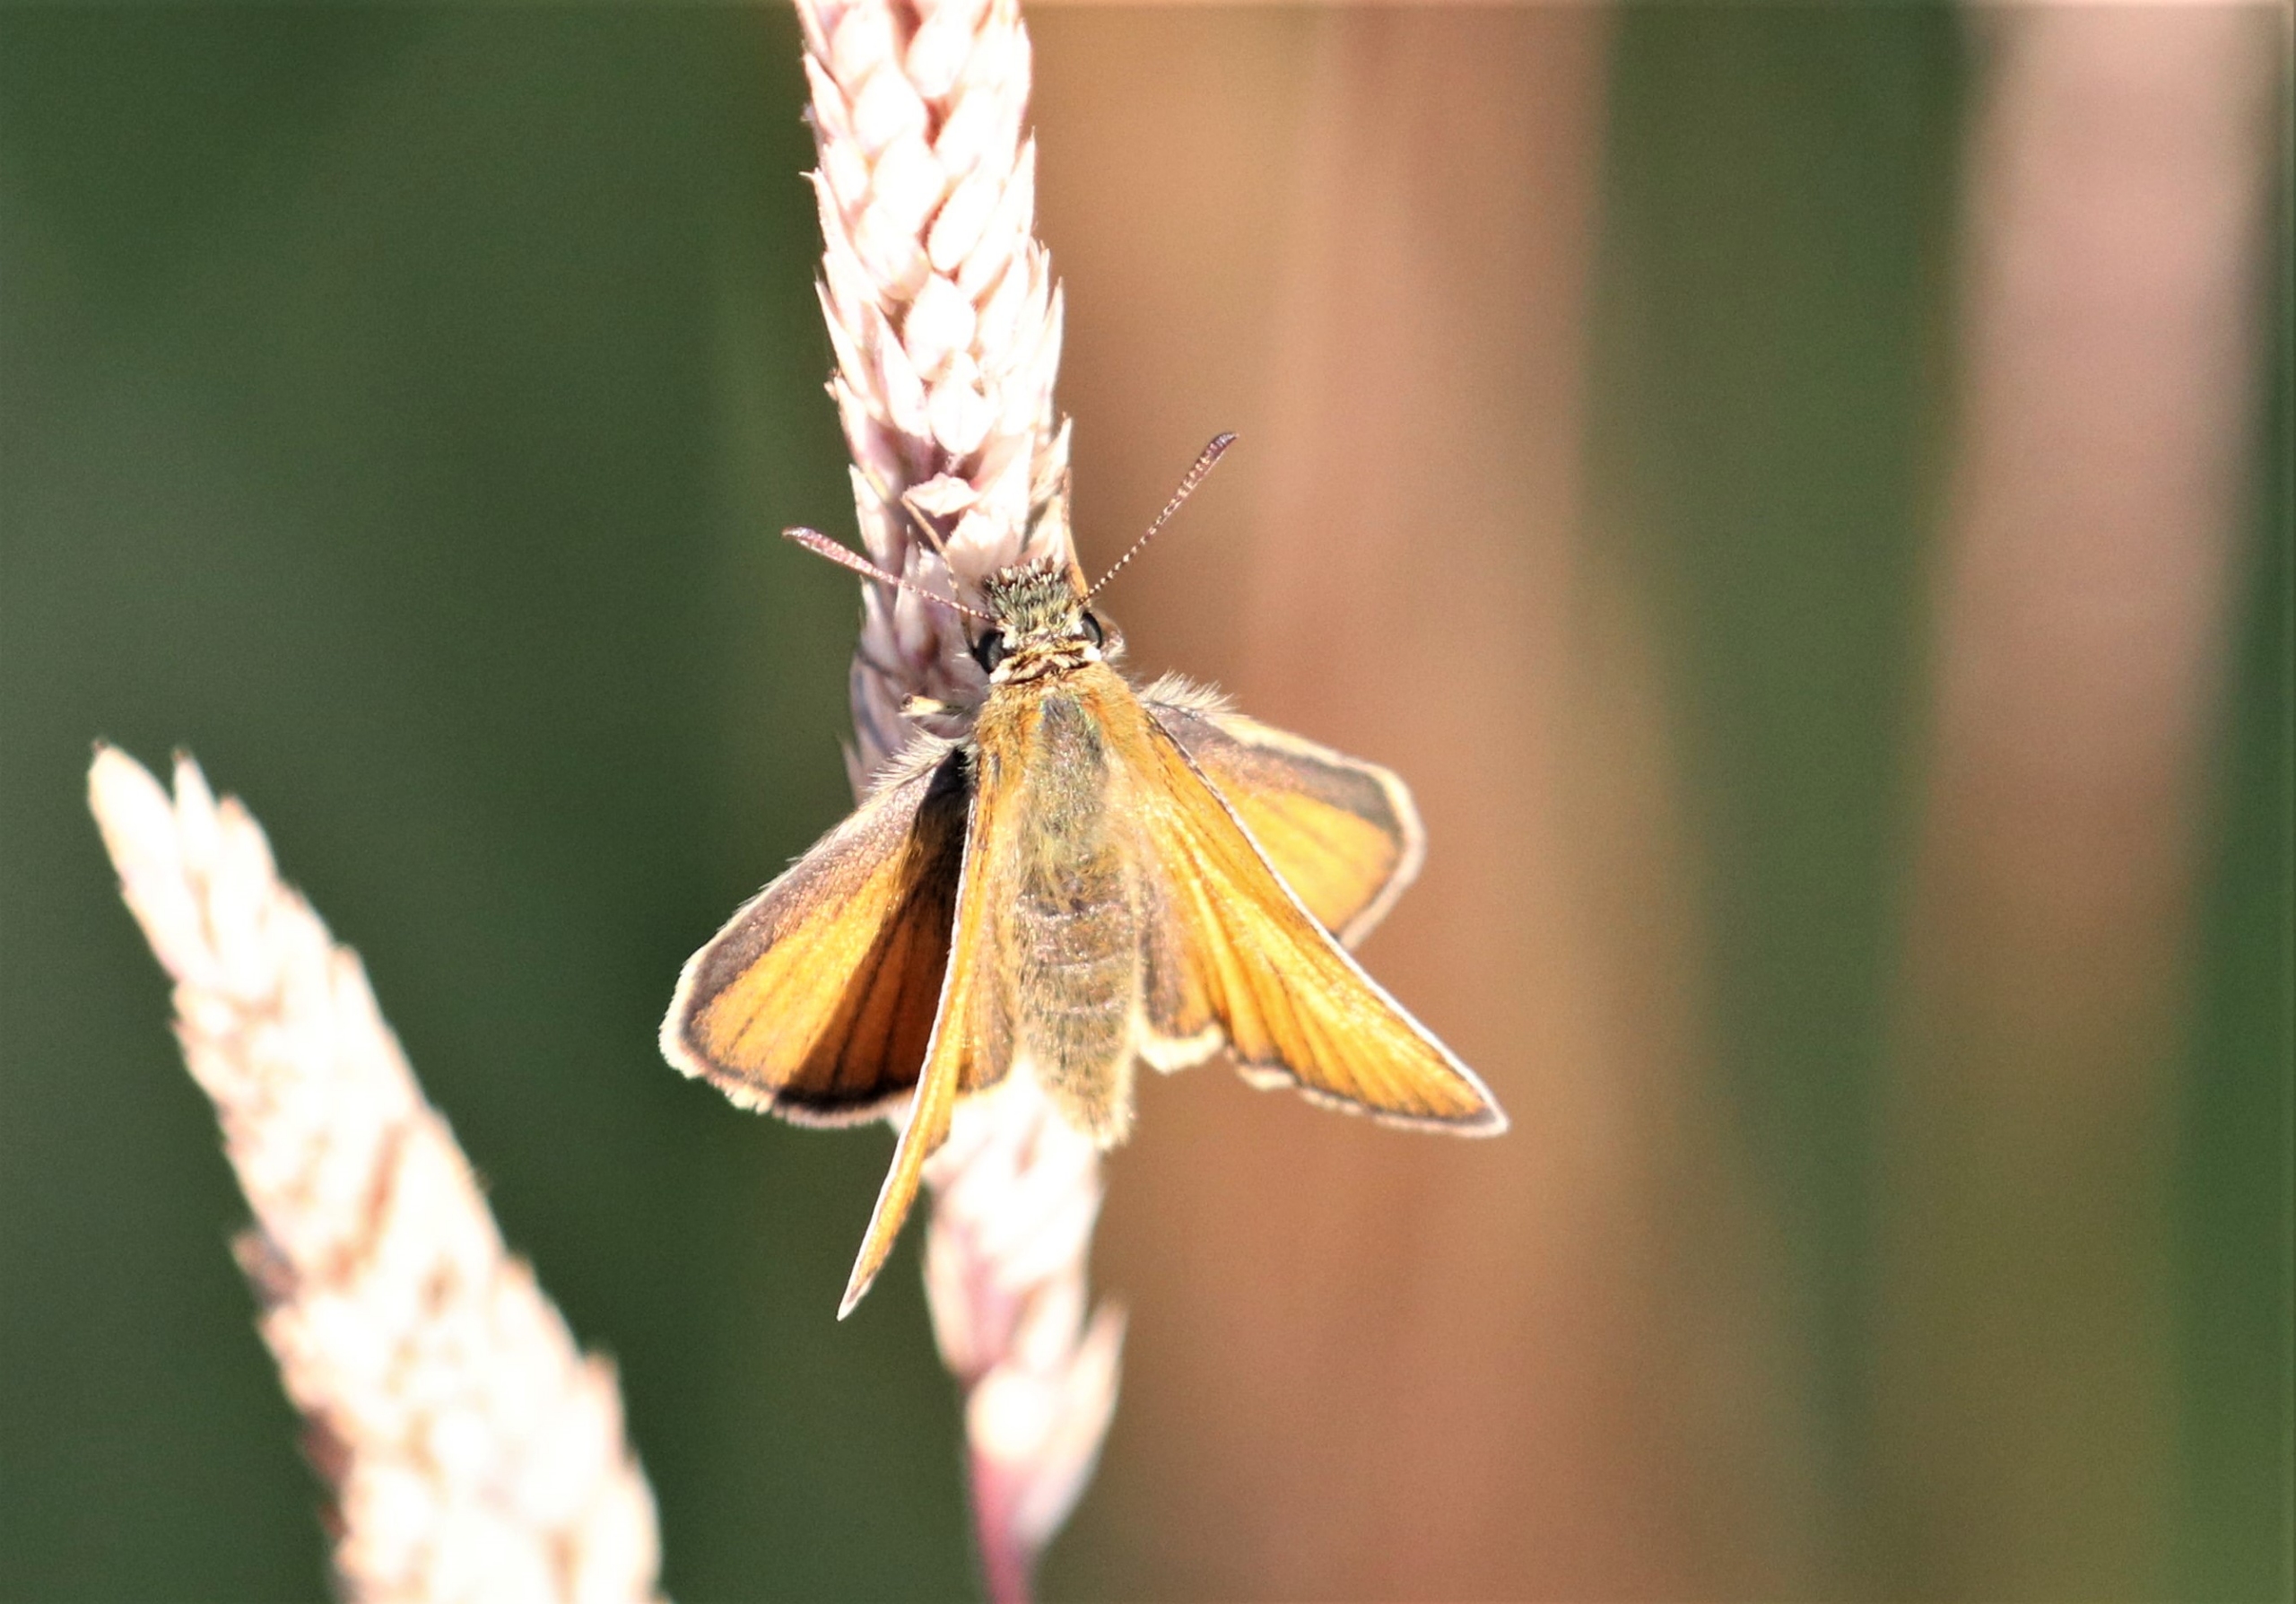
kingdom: Animalia
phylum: Arthropoda
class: Insecta
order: Lepidoptera
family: Hesperiidae
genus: Thymelicus
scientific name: Thymelicus lineola
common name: Stregbredpande
